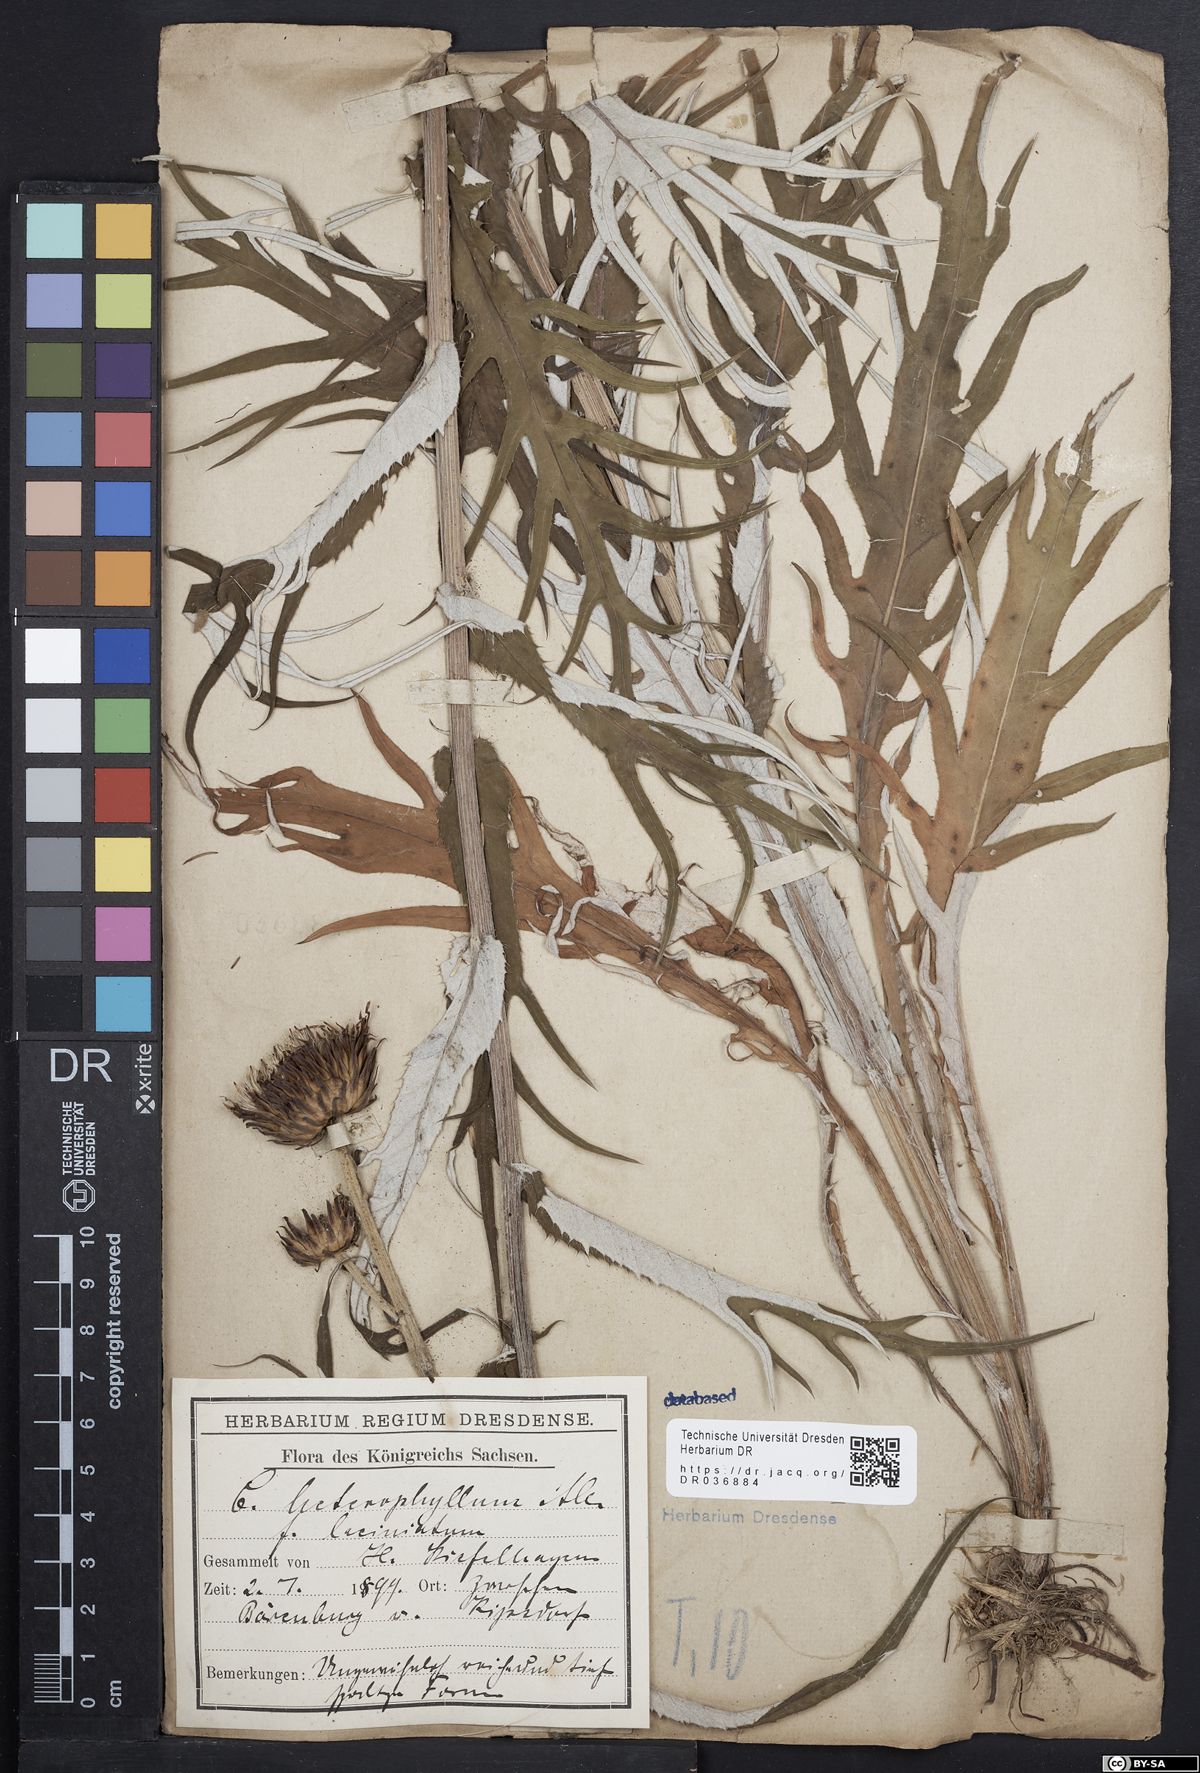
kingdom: Plantae
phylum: Tracheophyta
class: Magnoliopsida
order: Asterales
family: Asteraceae
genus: Cirsium
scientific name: Cirsium helenioides
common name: Melancholy thistle
